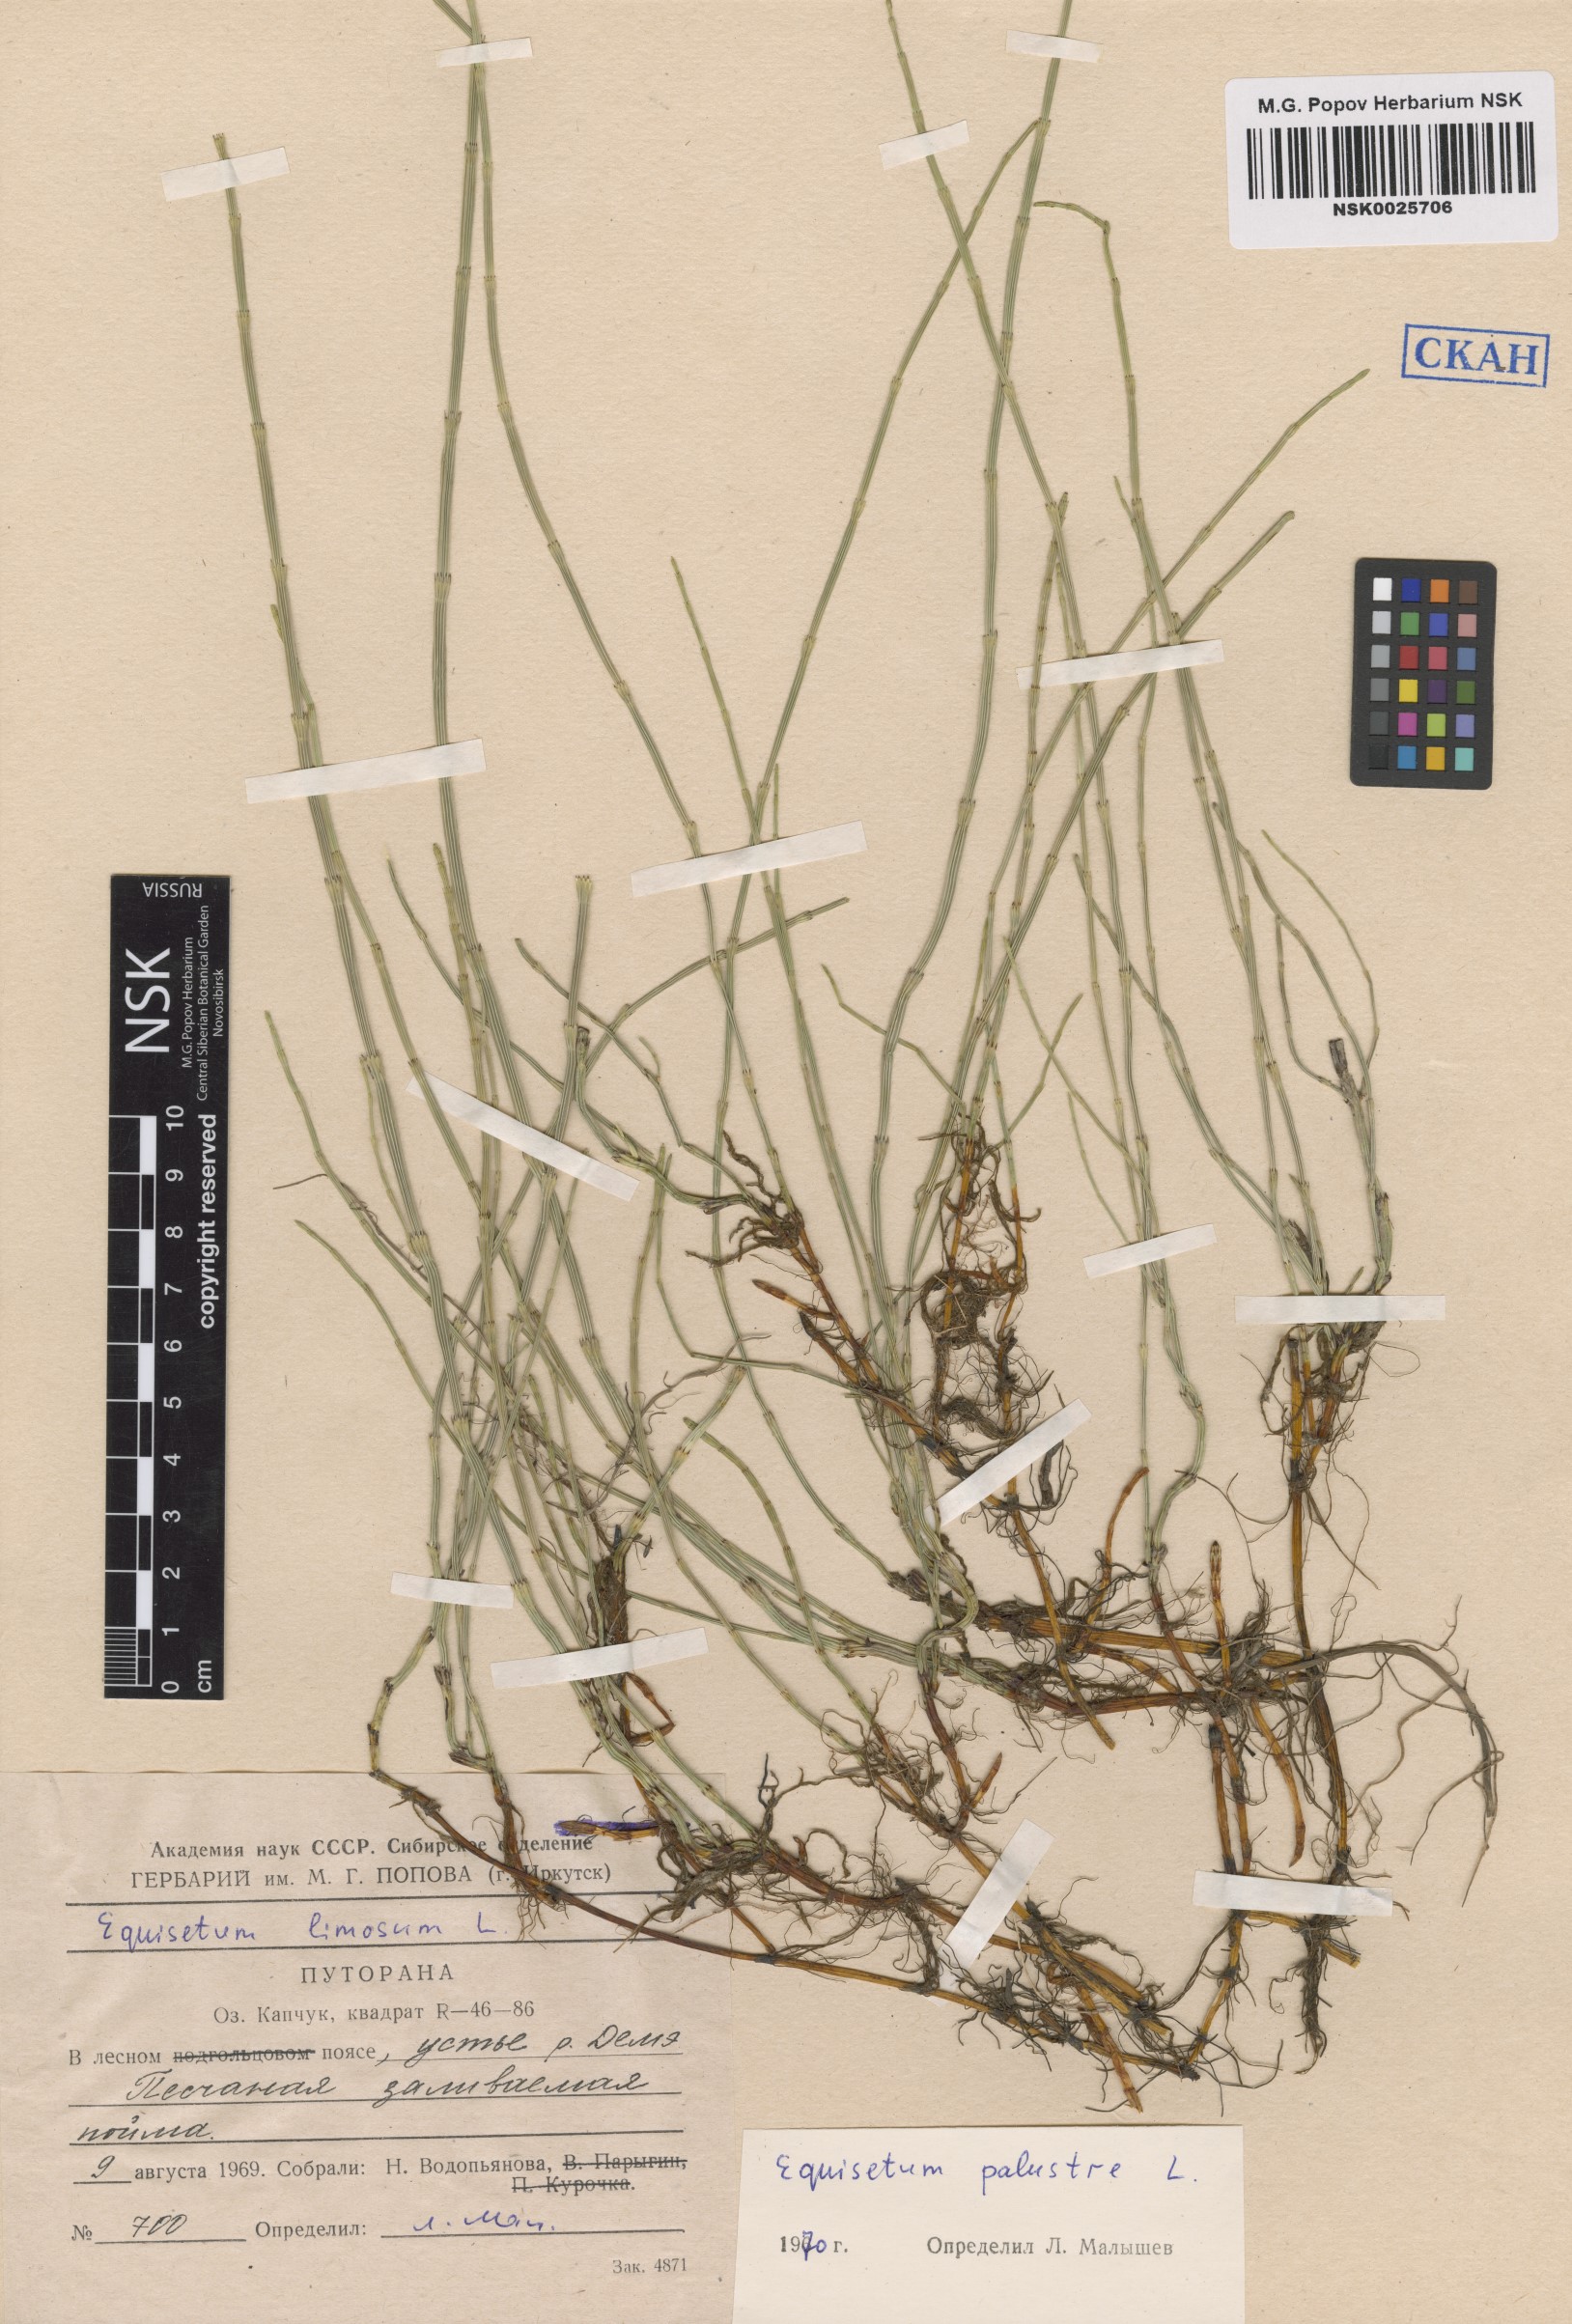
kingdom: Plantae
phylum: Tracheophyta
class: Polypodiopsida
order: Equisetales
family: Equisetaceae
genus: Equisetum
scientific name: Equisetum palustre
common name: Marsh horsetail
